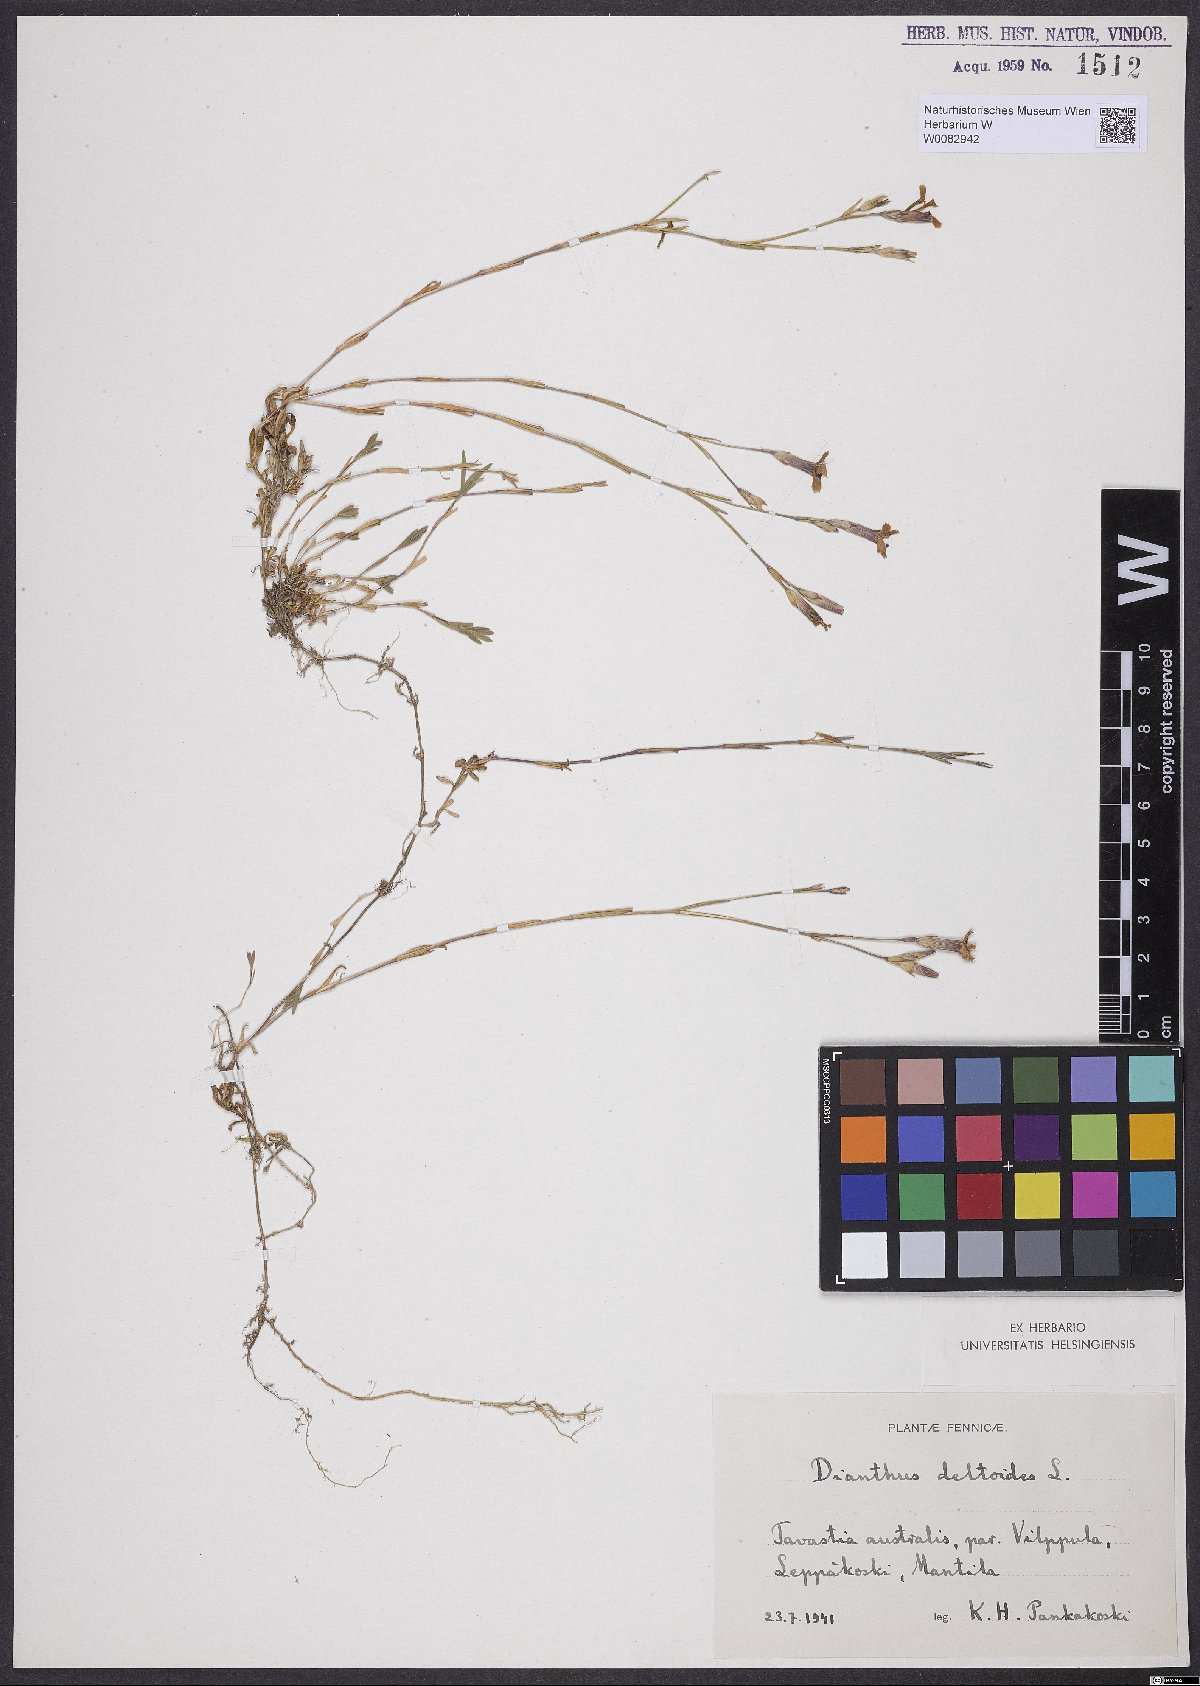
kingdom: Plantae
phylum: Tracheophyta
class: Magnoliopsida
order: Caryophyllales
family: Caryophyllaceae
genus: Dianthus
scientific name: Dianthus deltoides
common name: Maiden pink
